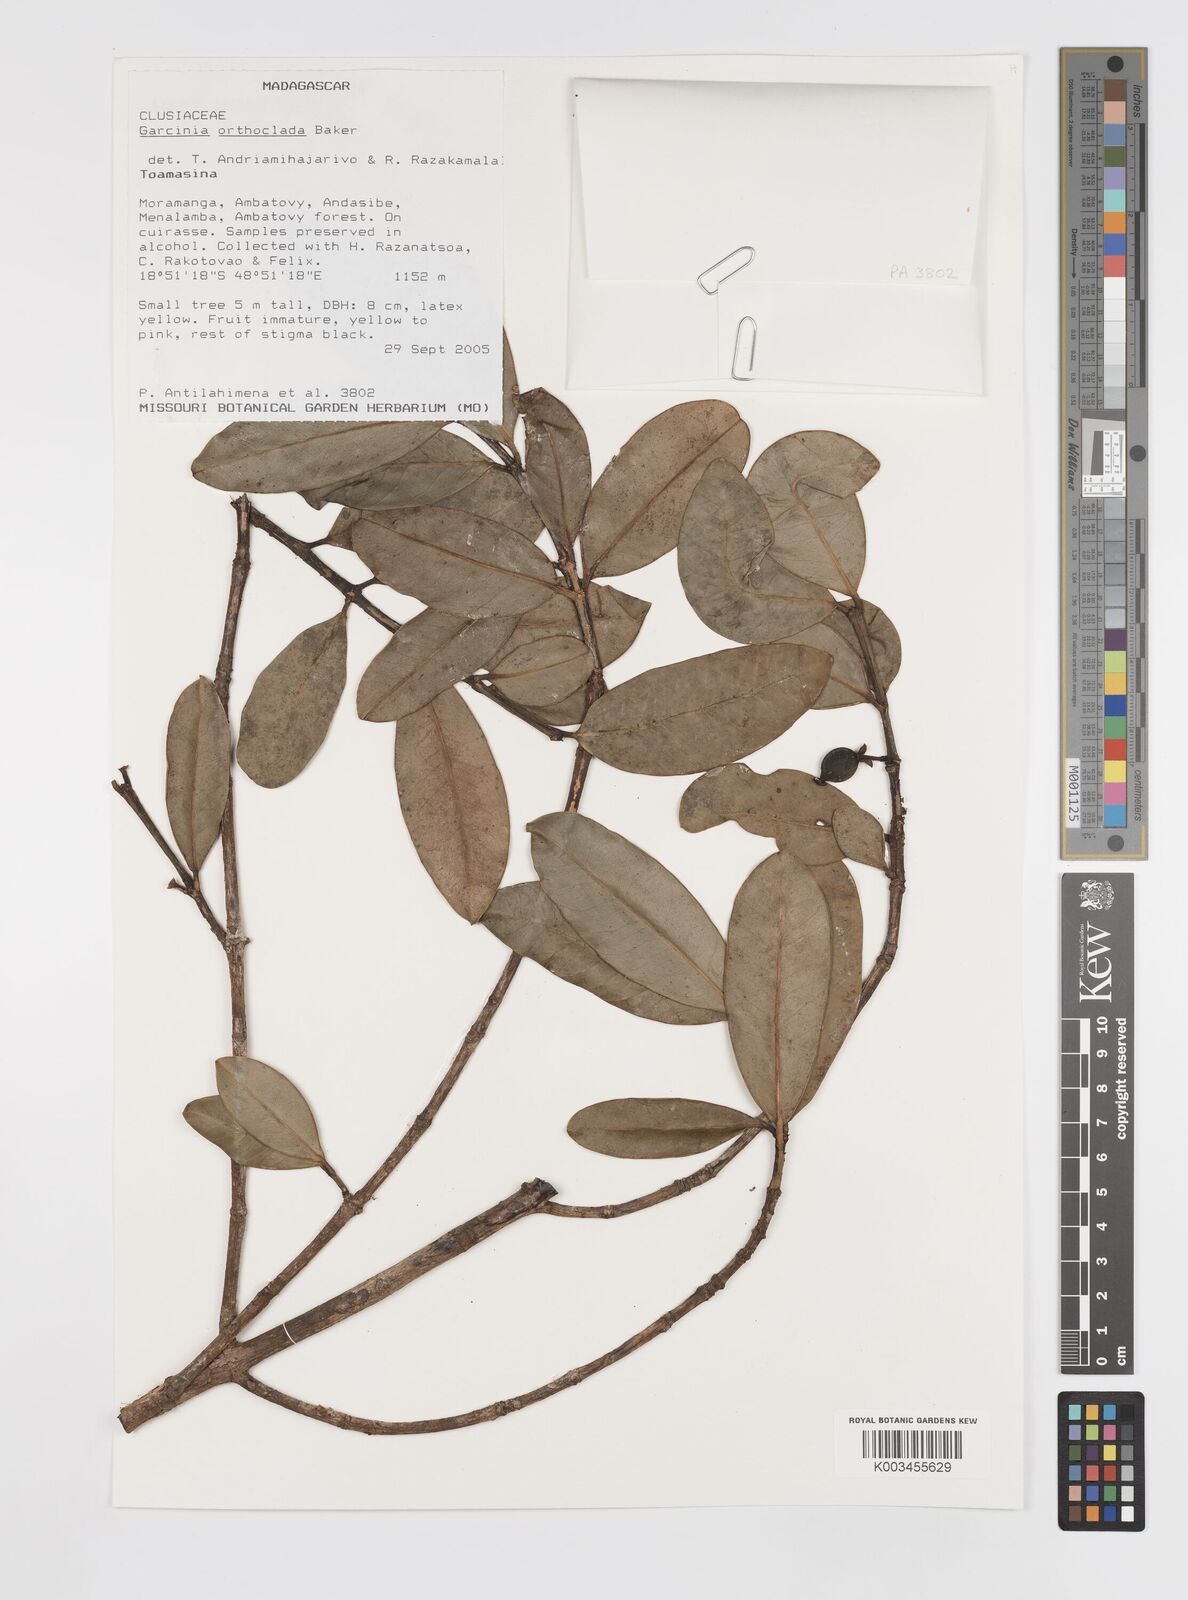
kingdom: Plantae
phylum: Tracheophyta
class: Magnoliopsida
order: Malpighiales
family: Clusiaceae
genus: Garcinia
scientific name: Garcinia orthoclada
